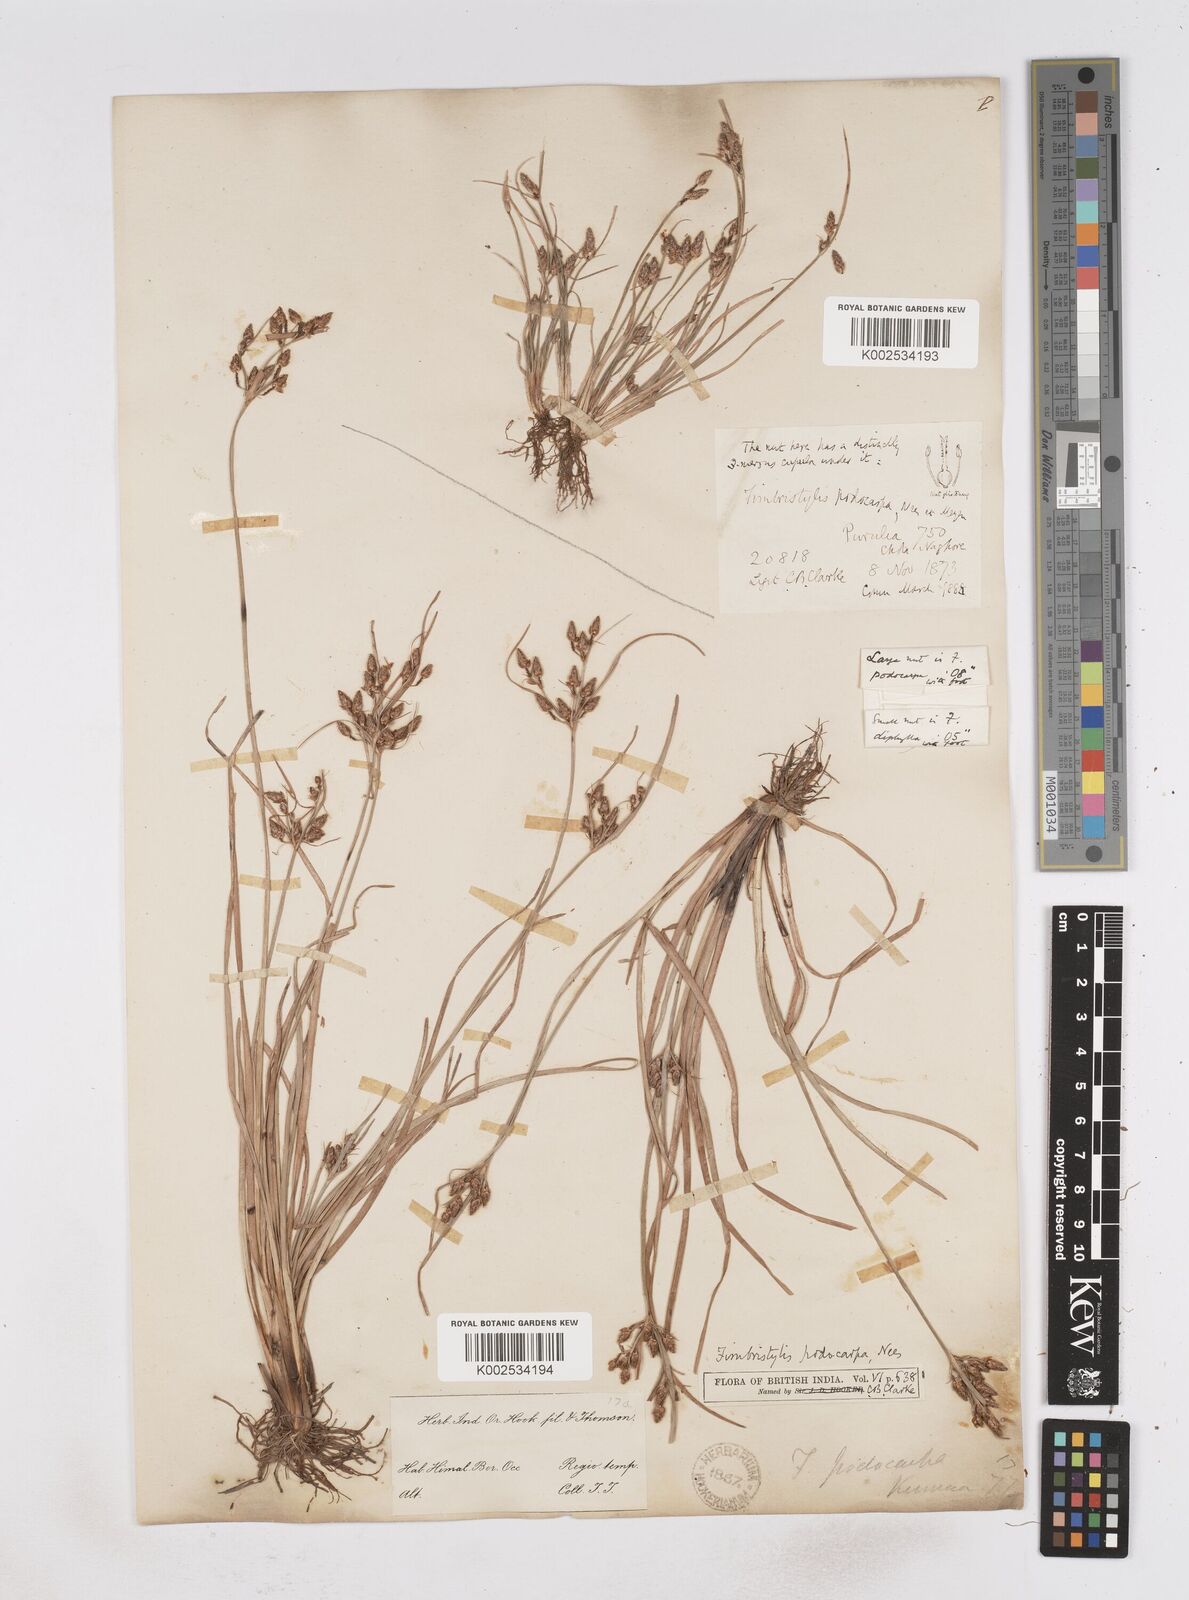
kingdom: Plantae
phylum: Tracheophyta
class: Liliopsida
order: Poales
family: Cyperaceae
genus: Fimbristylis
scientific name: Fimbristylis dichotoma
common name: Forked fimbry
